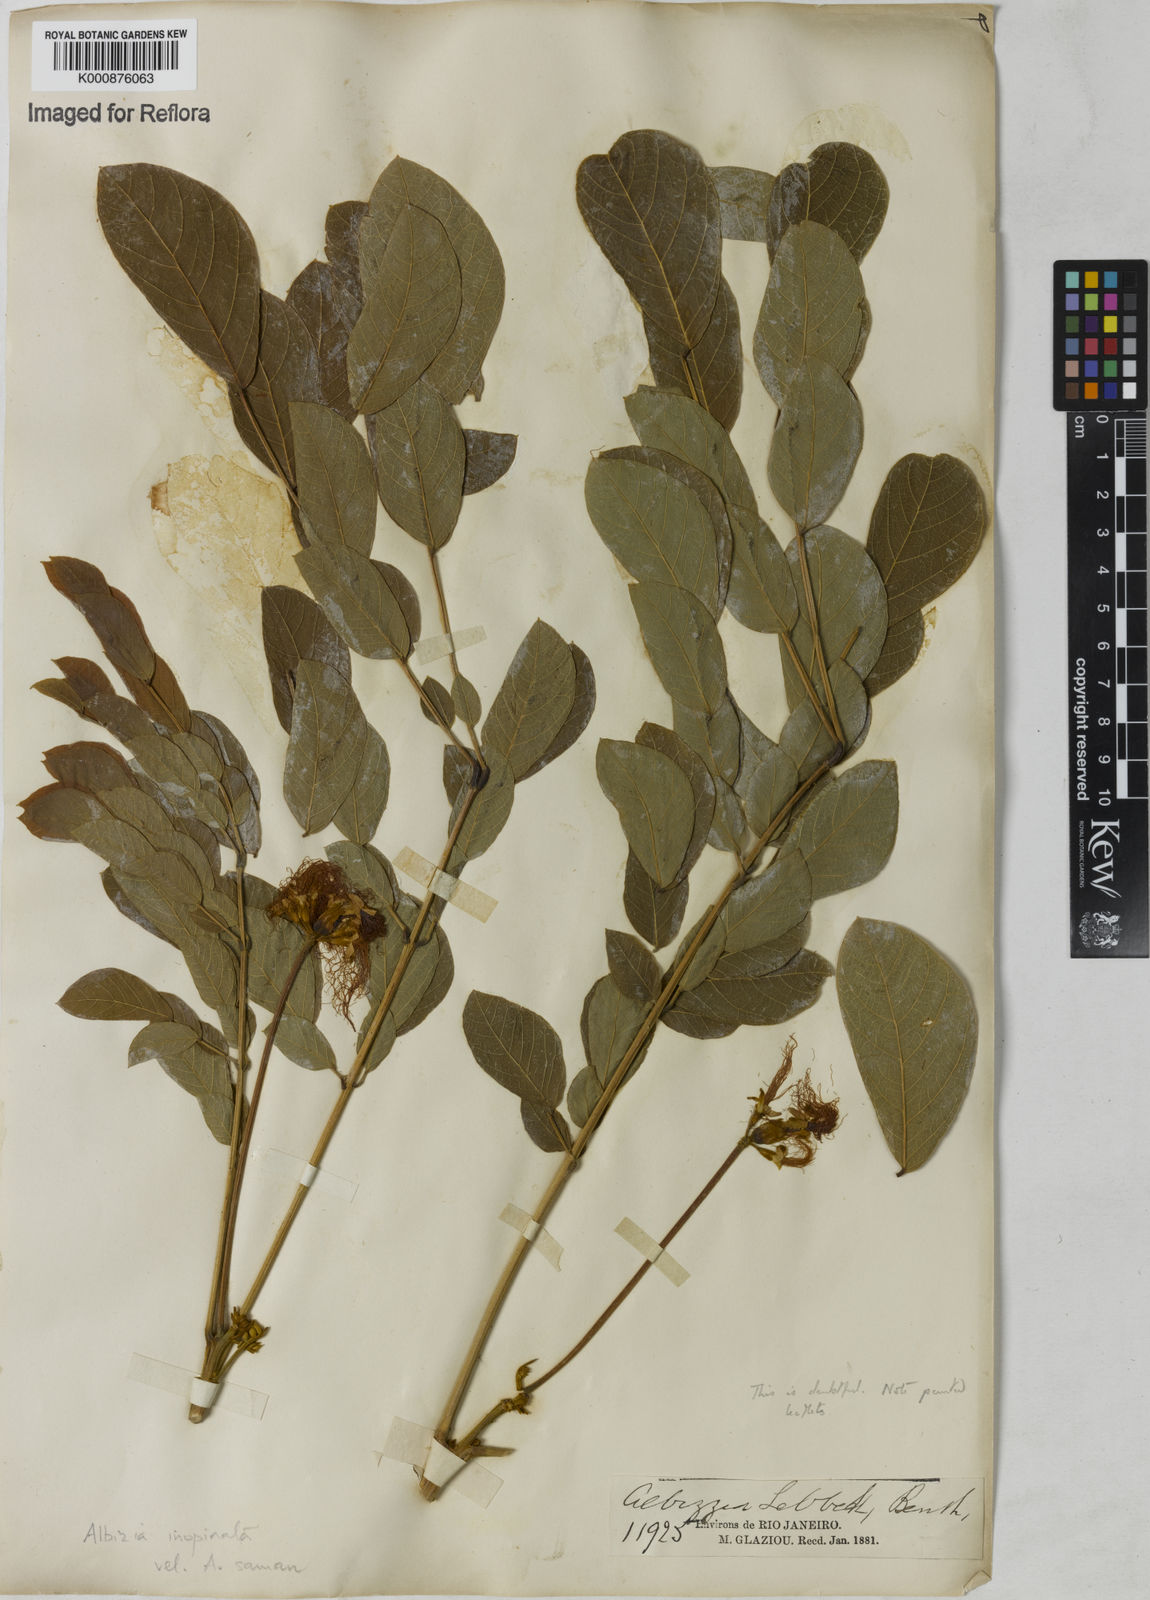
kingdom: Plantae
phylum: Tracheophyta
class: Magnoliopsida
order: Fabales
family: Fabaceae
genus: Samanea
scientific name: Samanea inopinata
